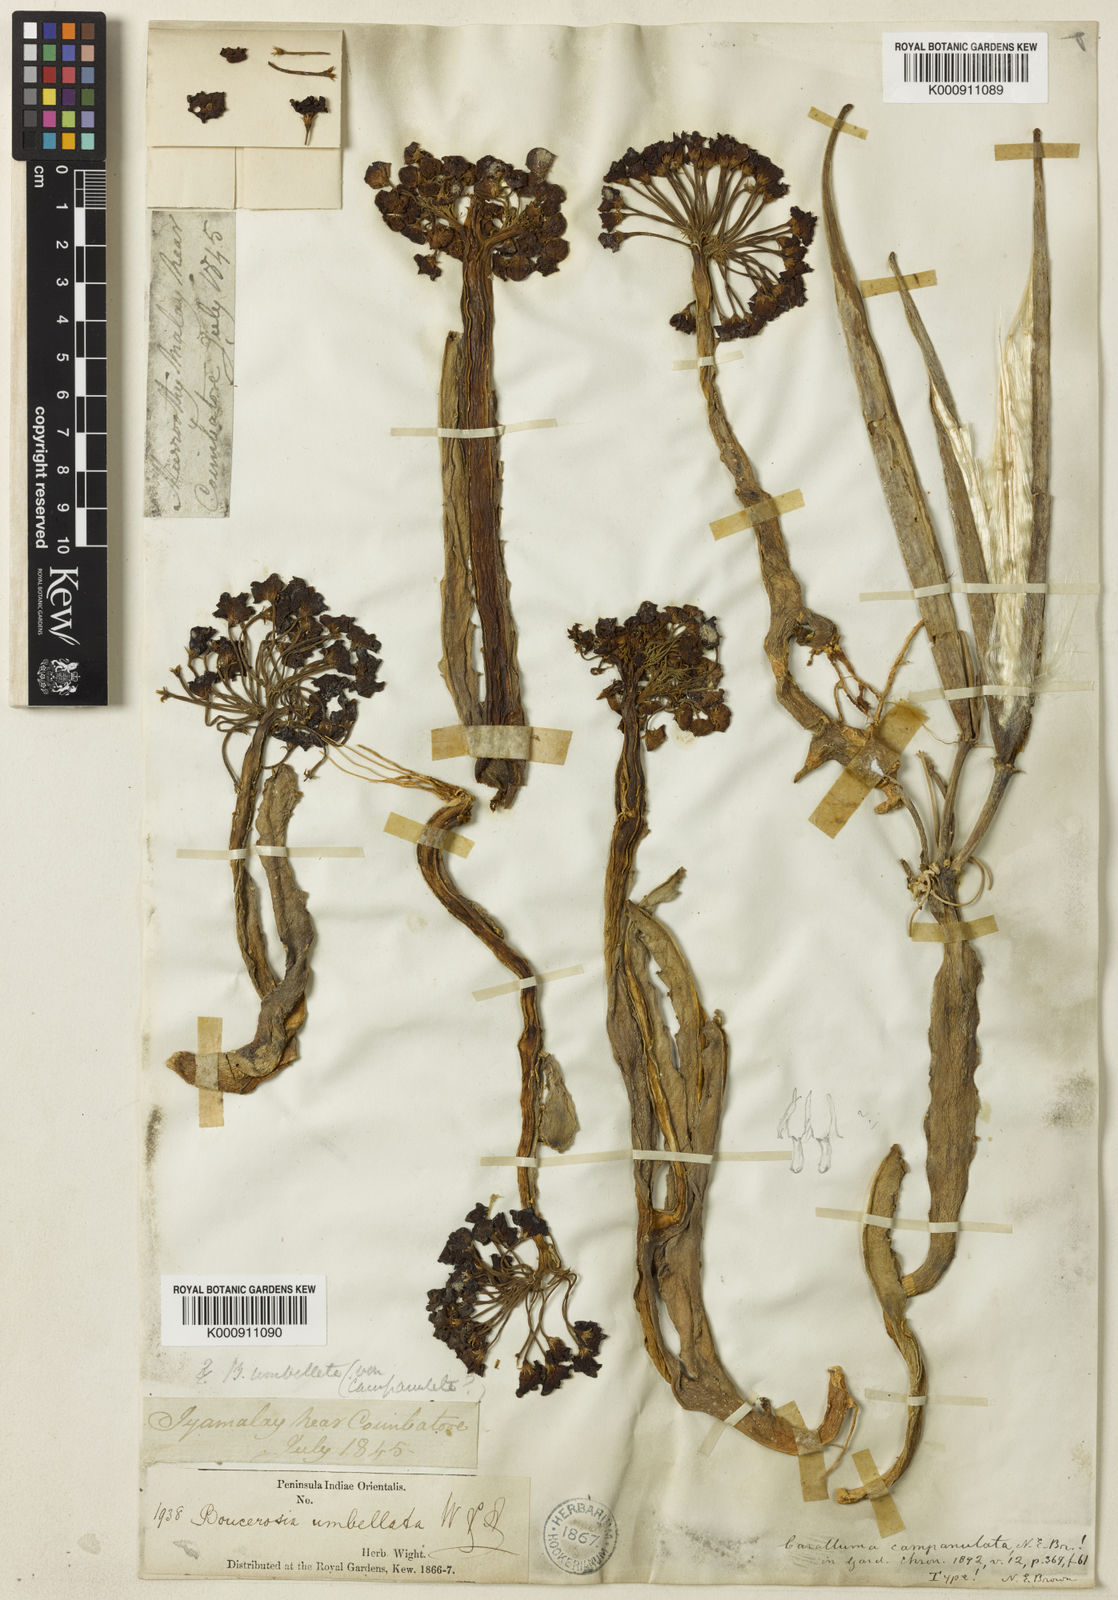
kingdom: Plantae
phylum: Tracheophyta
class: Magnoliopsida
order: Gentianales
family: Apocynaceae
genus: Ceropegia
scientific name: Ceropegia umbellata
